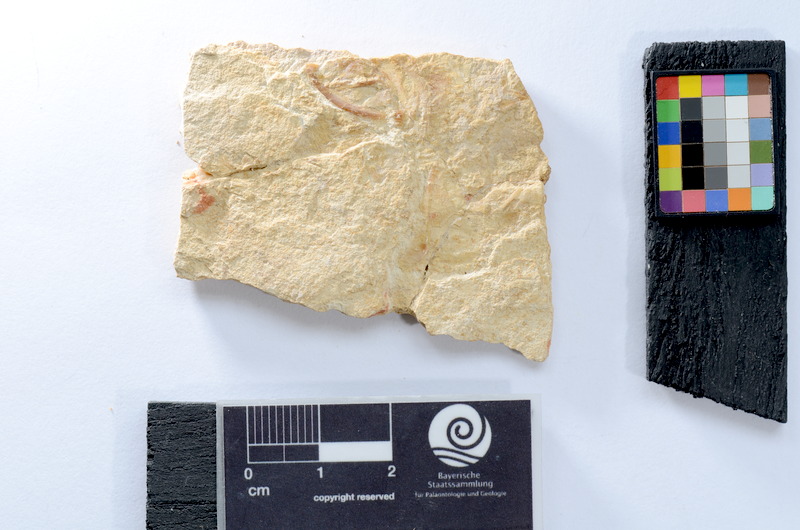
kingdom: Animalia
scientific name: Animalia
